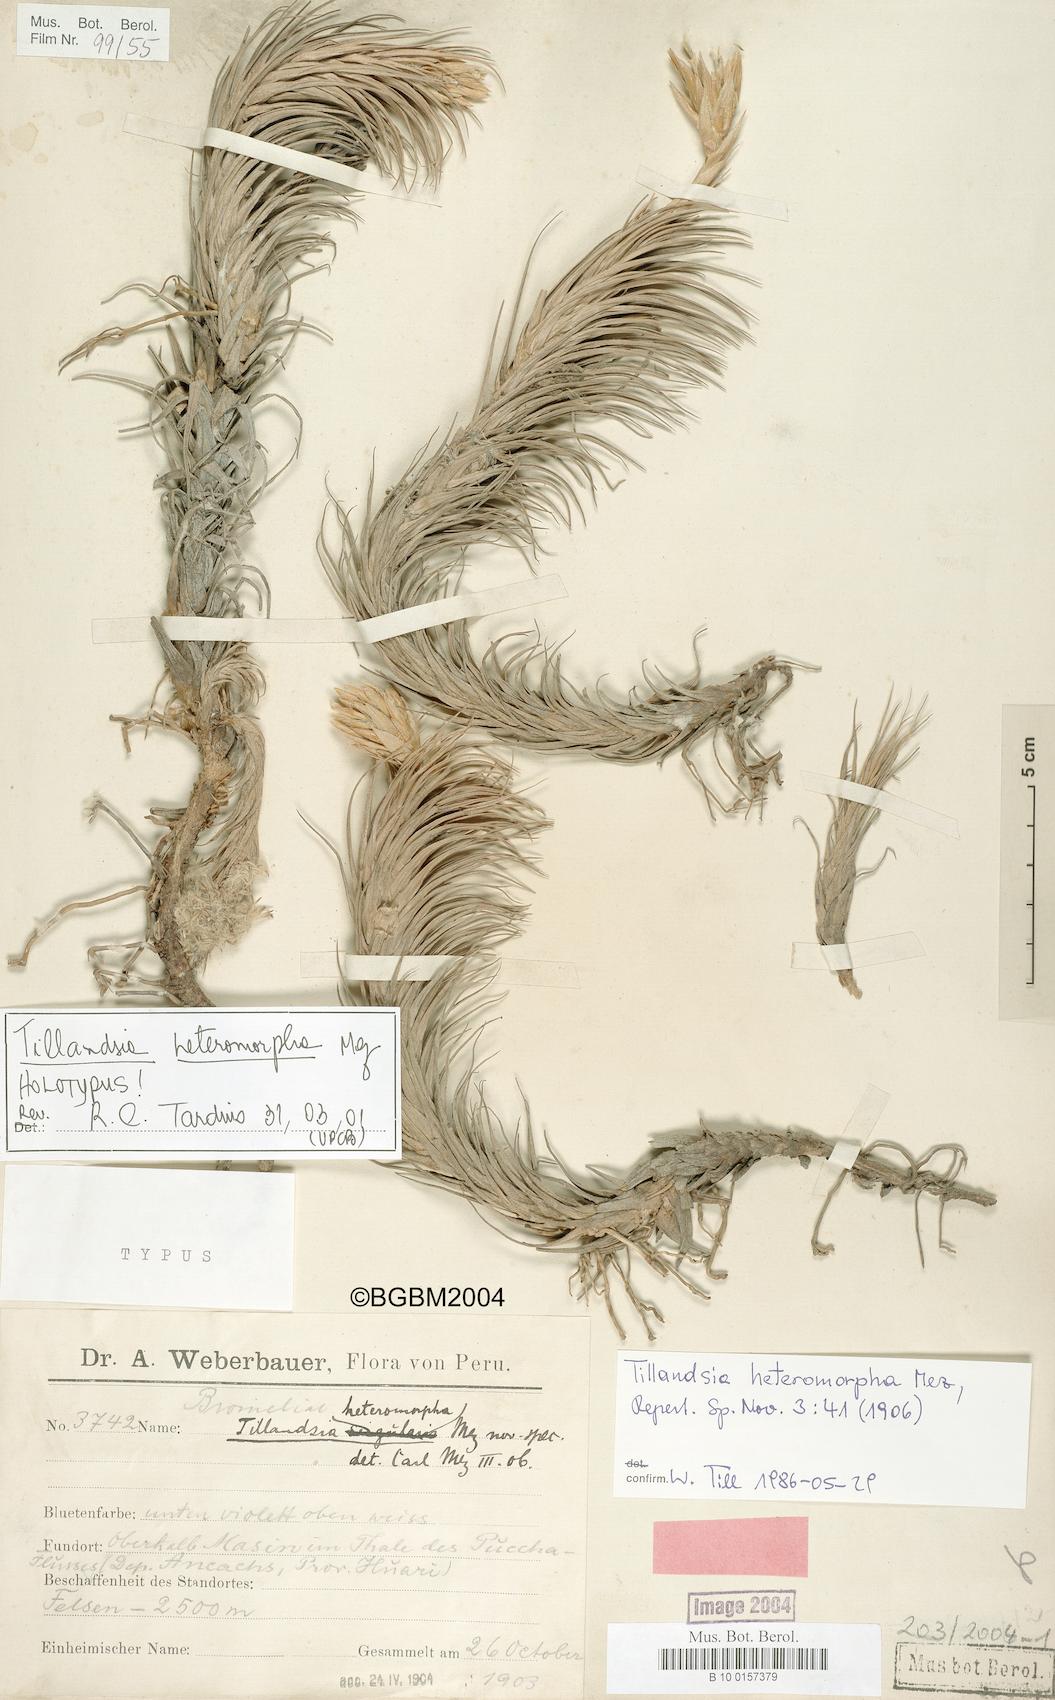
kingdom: Plantae
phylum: Tracheophyta
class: Liliopsida
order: Poales
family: Bromeliaceae
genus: Tillandsia
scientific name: Tillandsia heteromorpha
